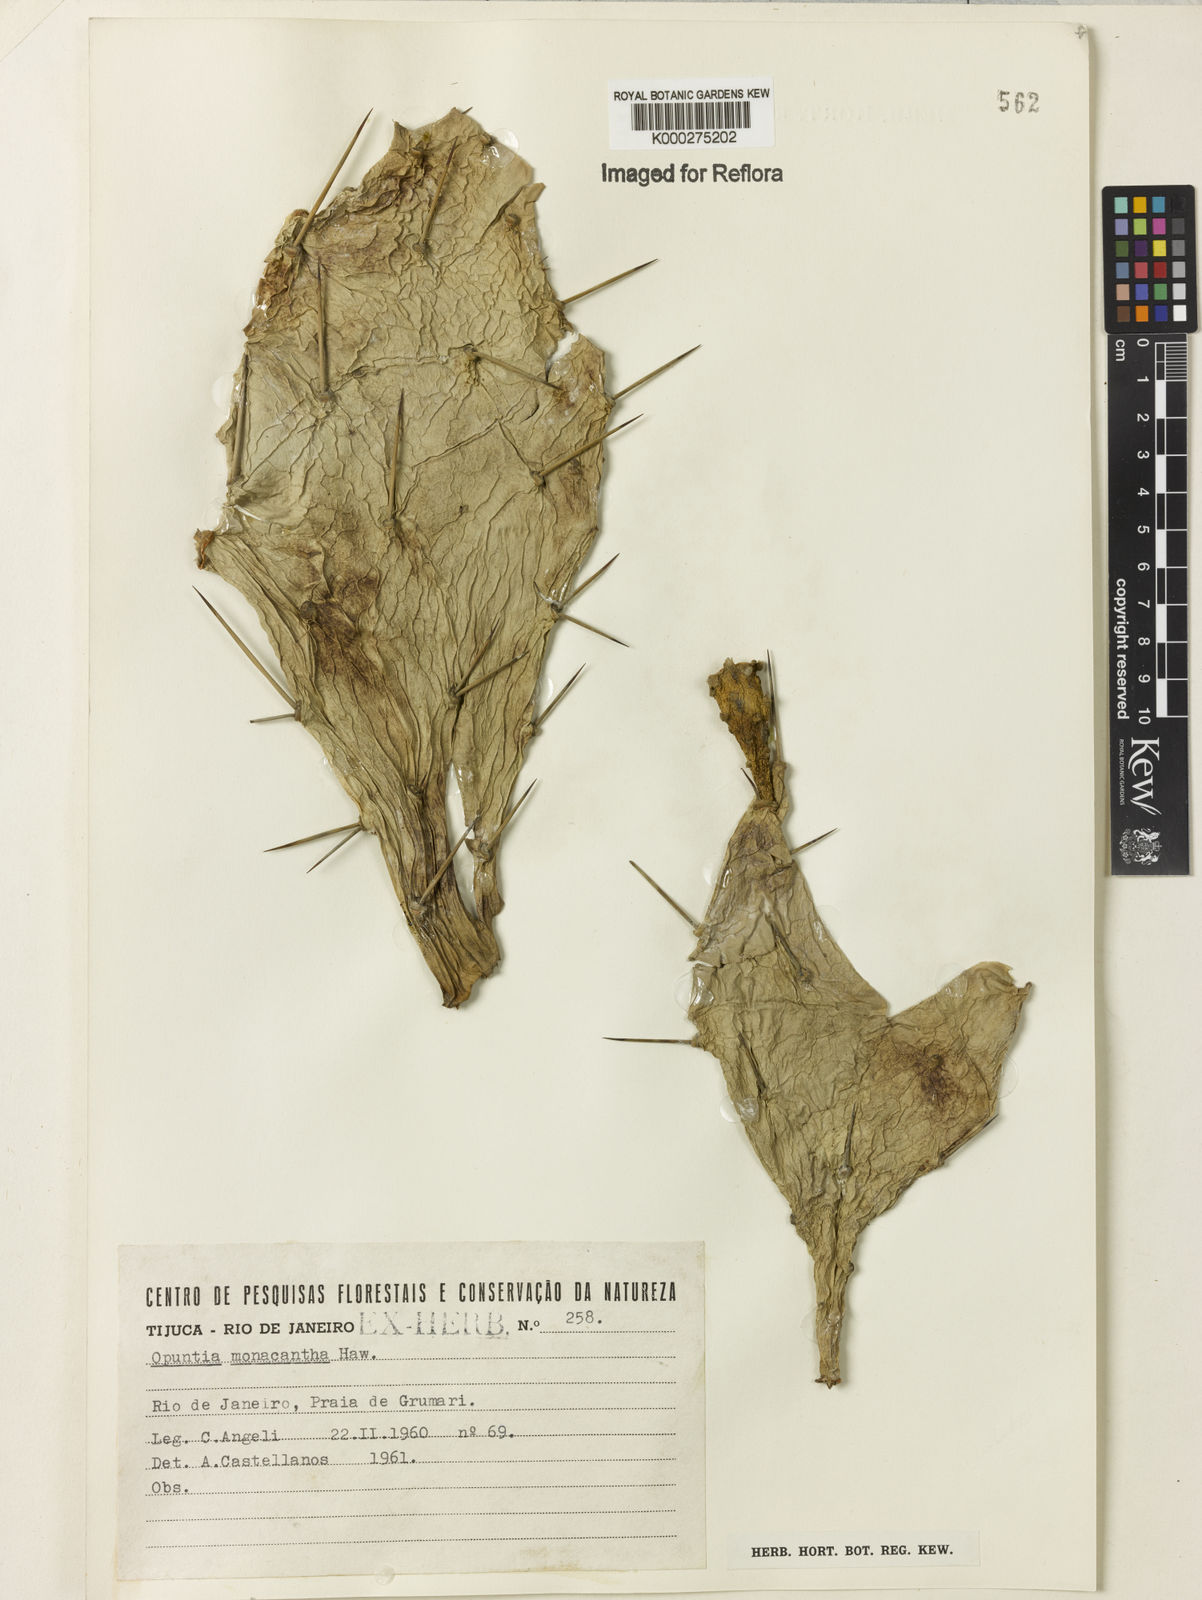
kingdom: Plantae
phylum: Tracheophyta
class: Magnoliopsida
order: Caryophyllales
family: Cactaceae
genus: Opuntia
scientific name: Opuntia monacantha
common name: Common pricklypear
